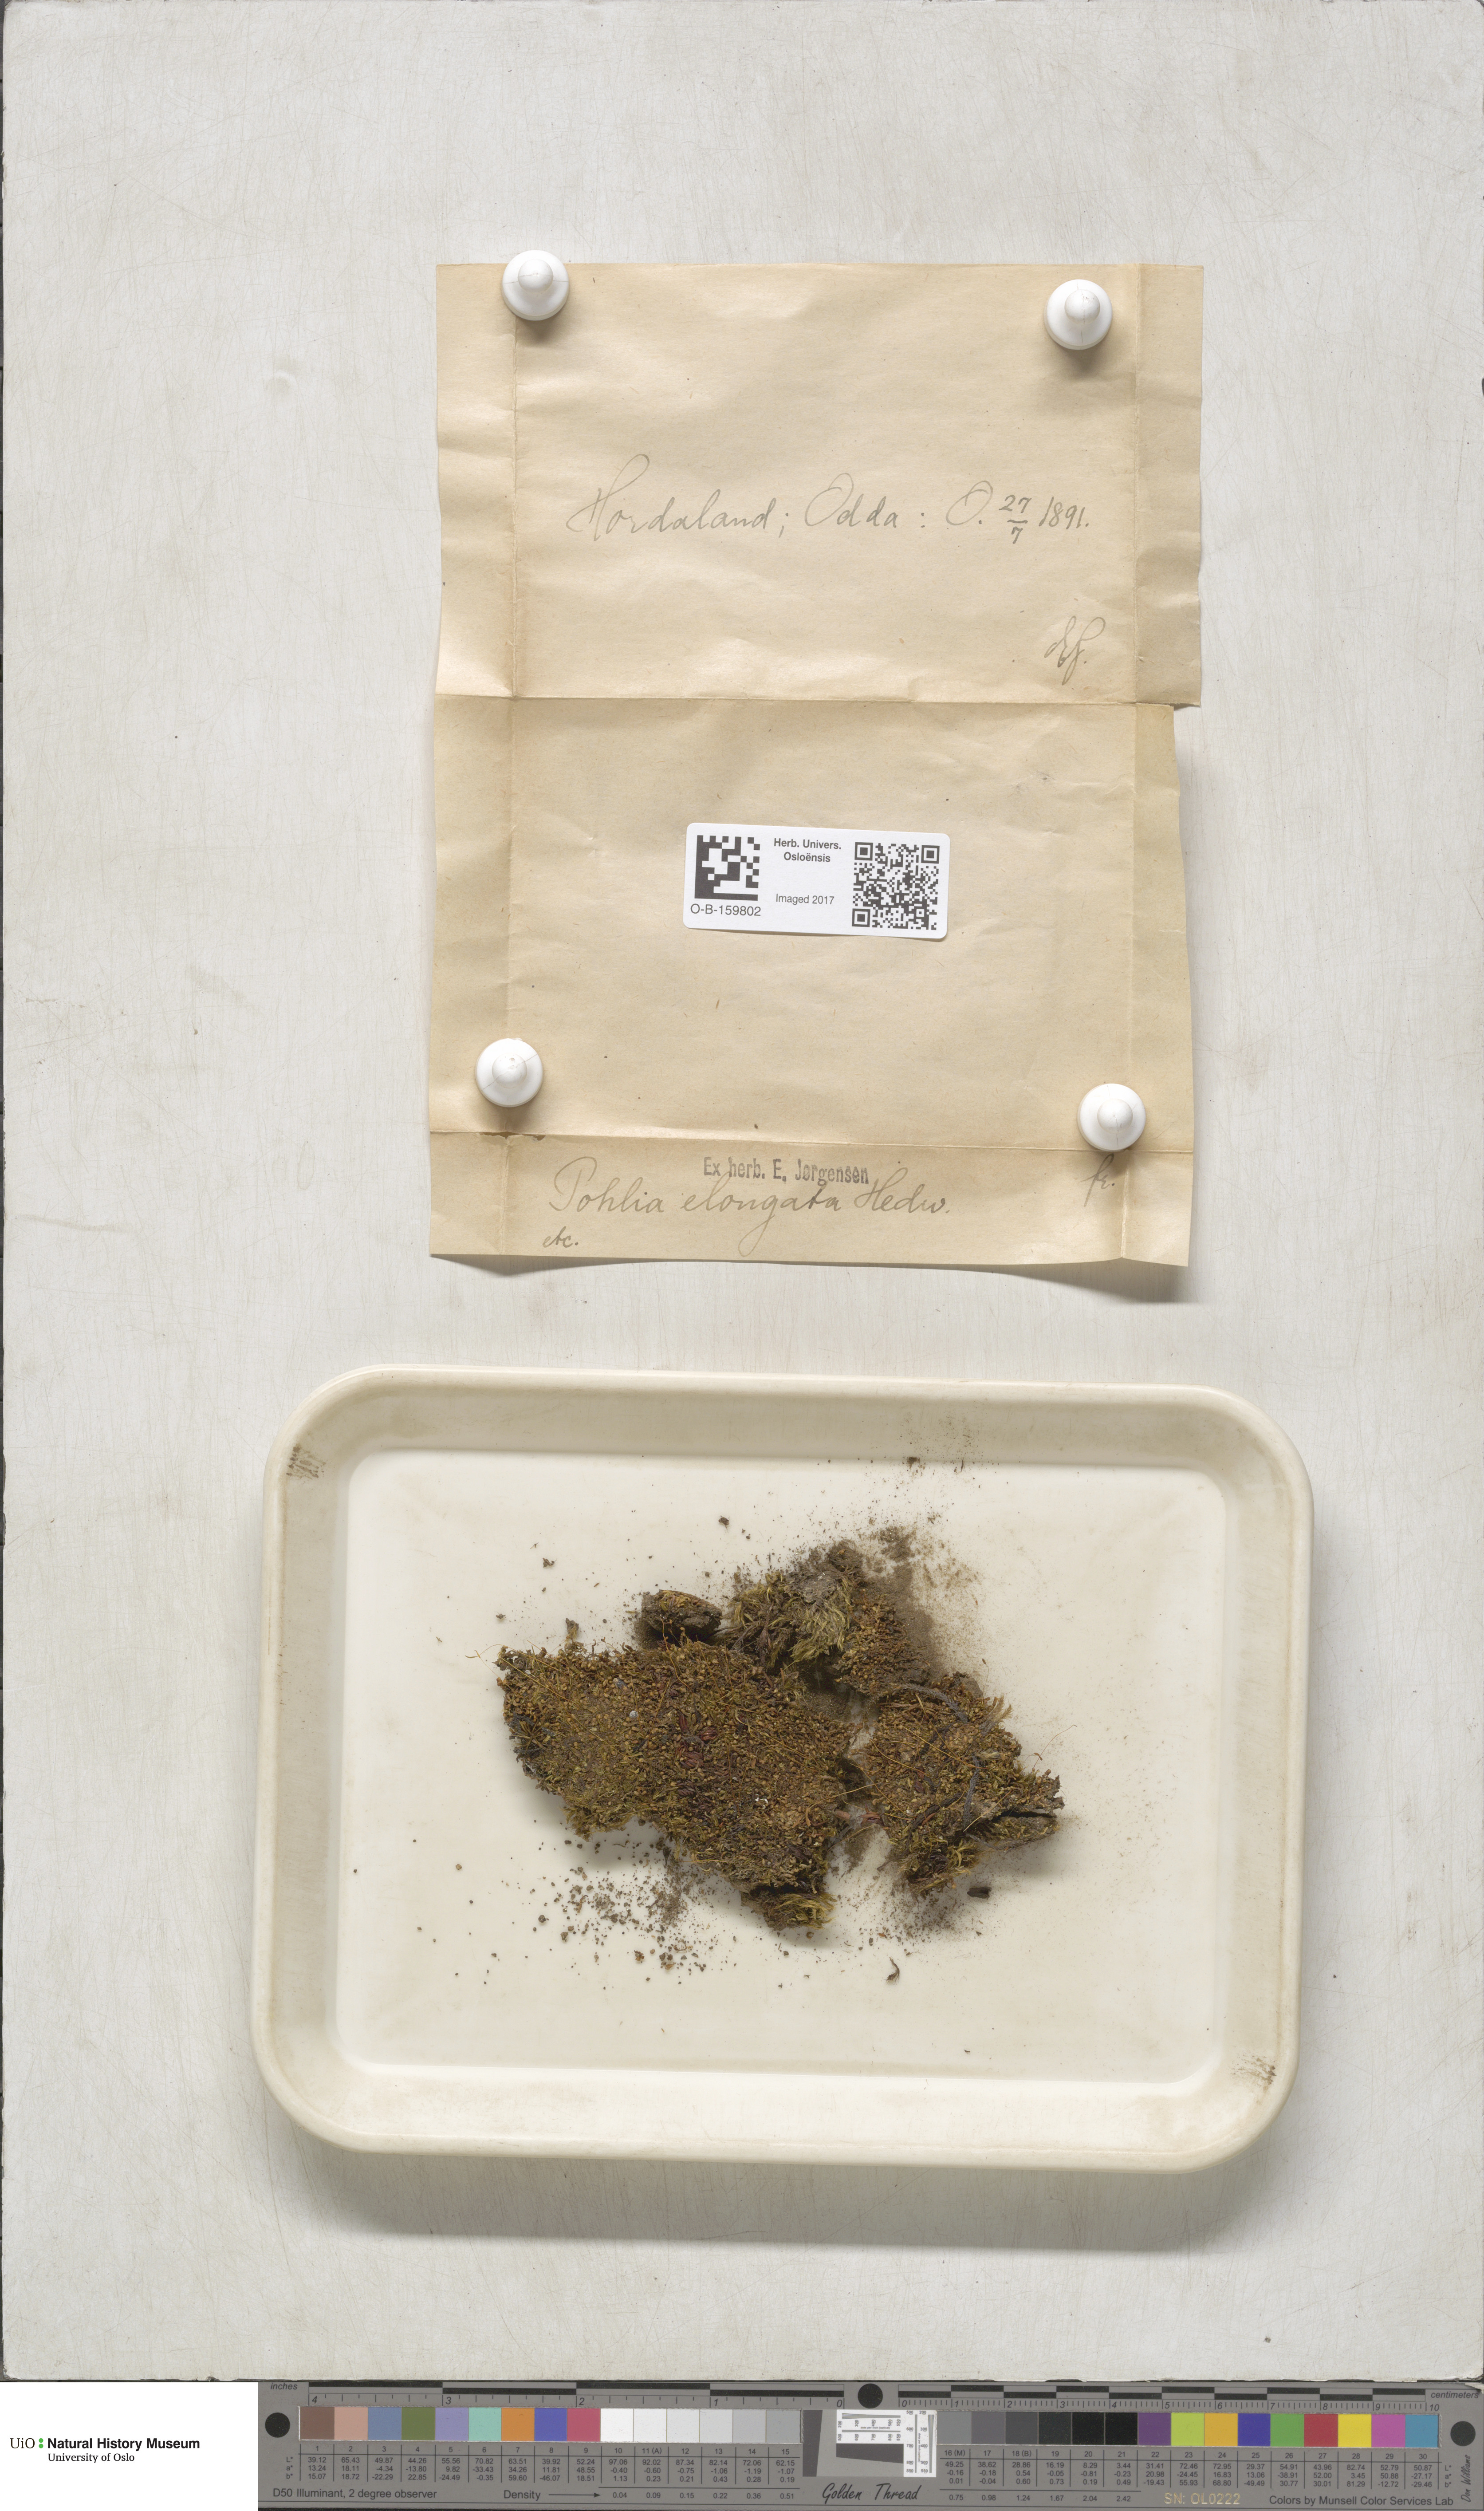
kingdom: Plantae
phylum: Bryophyta
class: Bryopsida
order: Bryales
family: Mniaceae
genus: Pohlia
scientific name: Pohlia elongata
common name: Long-fruited thread-moss
